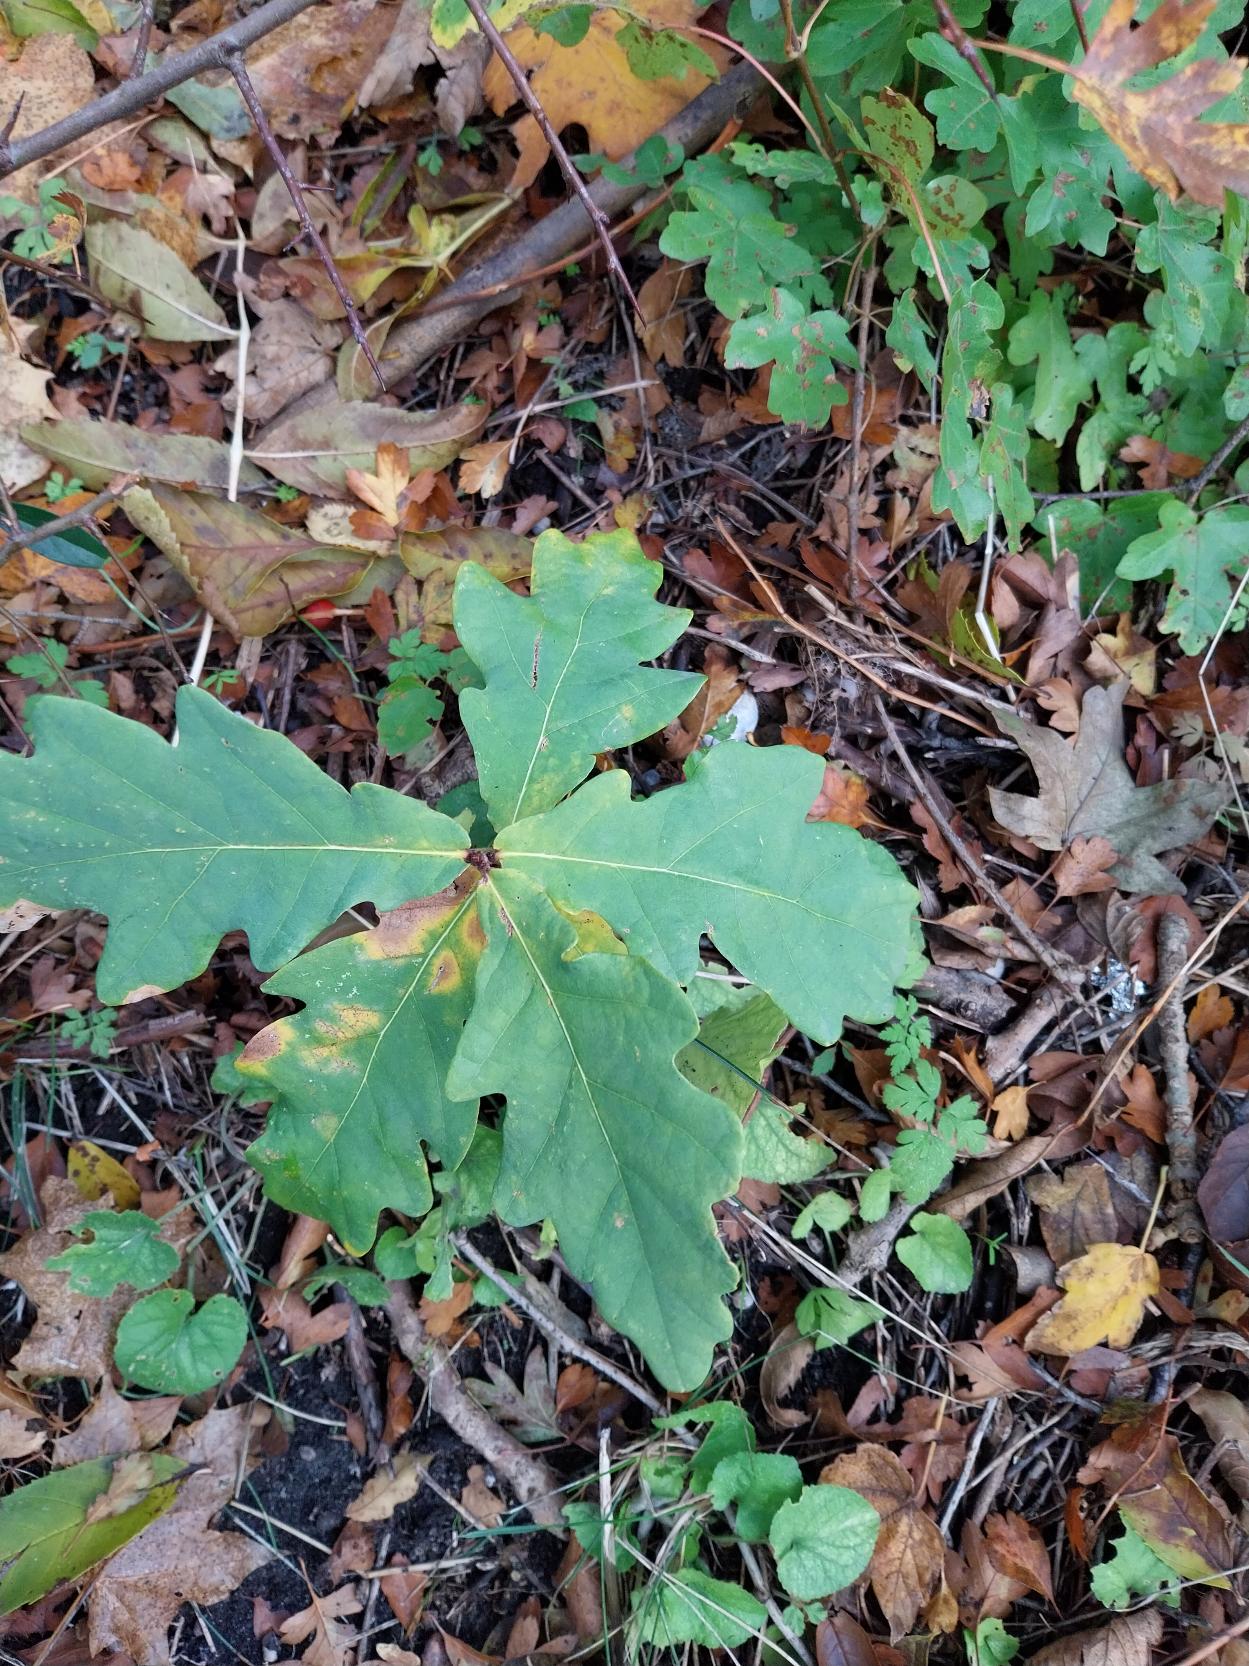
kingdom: Plantae
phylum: Tracheophyta
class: Magnoliopsida
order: Fagales
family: Fagaceae
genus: Quercus
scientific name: Quercus robur
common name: Stilk-eg/almindelig eg
